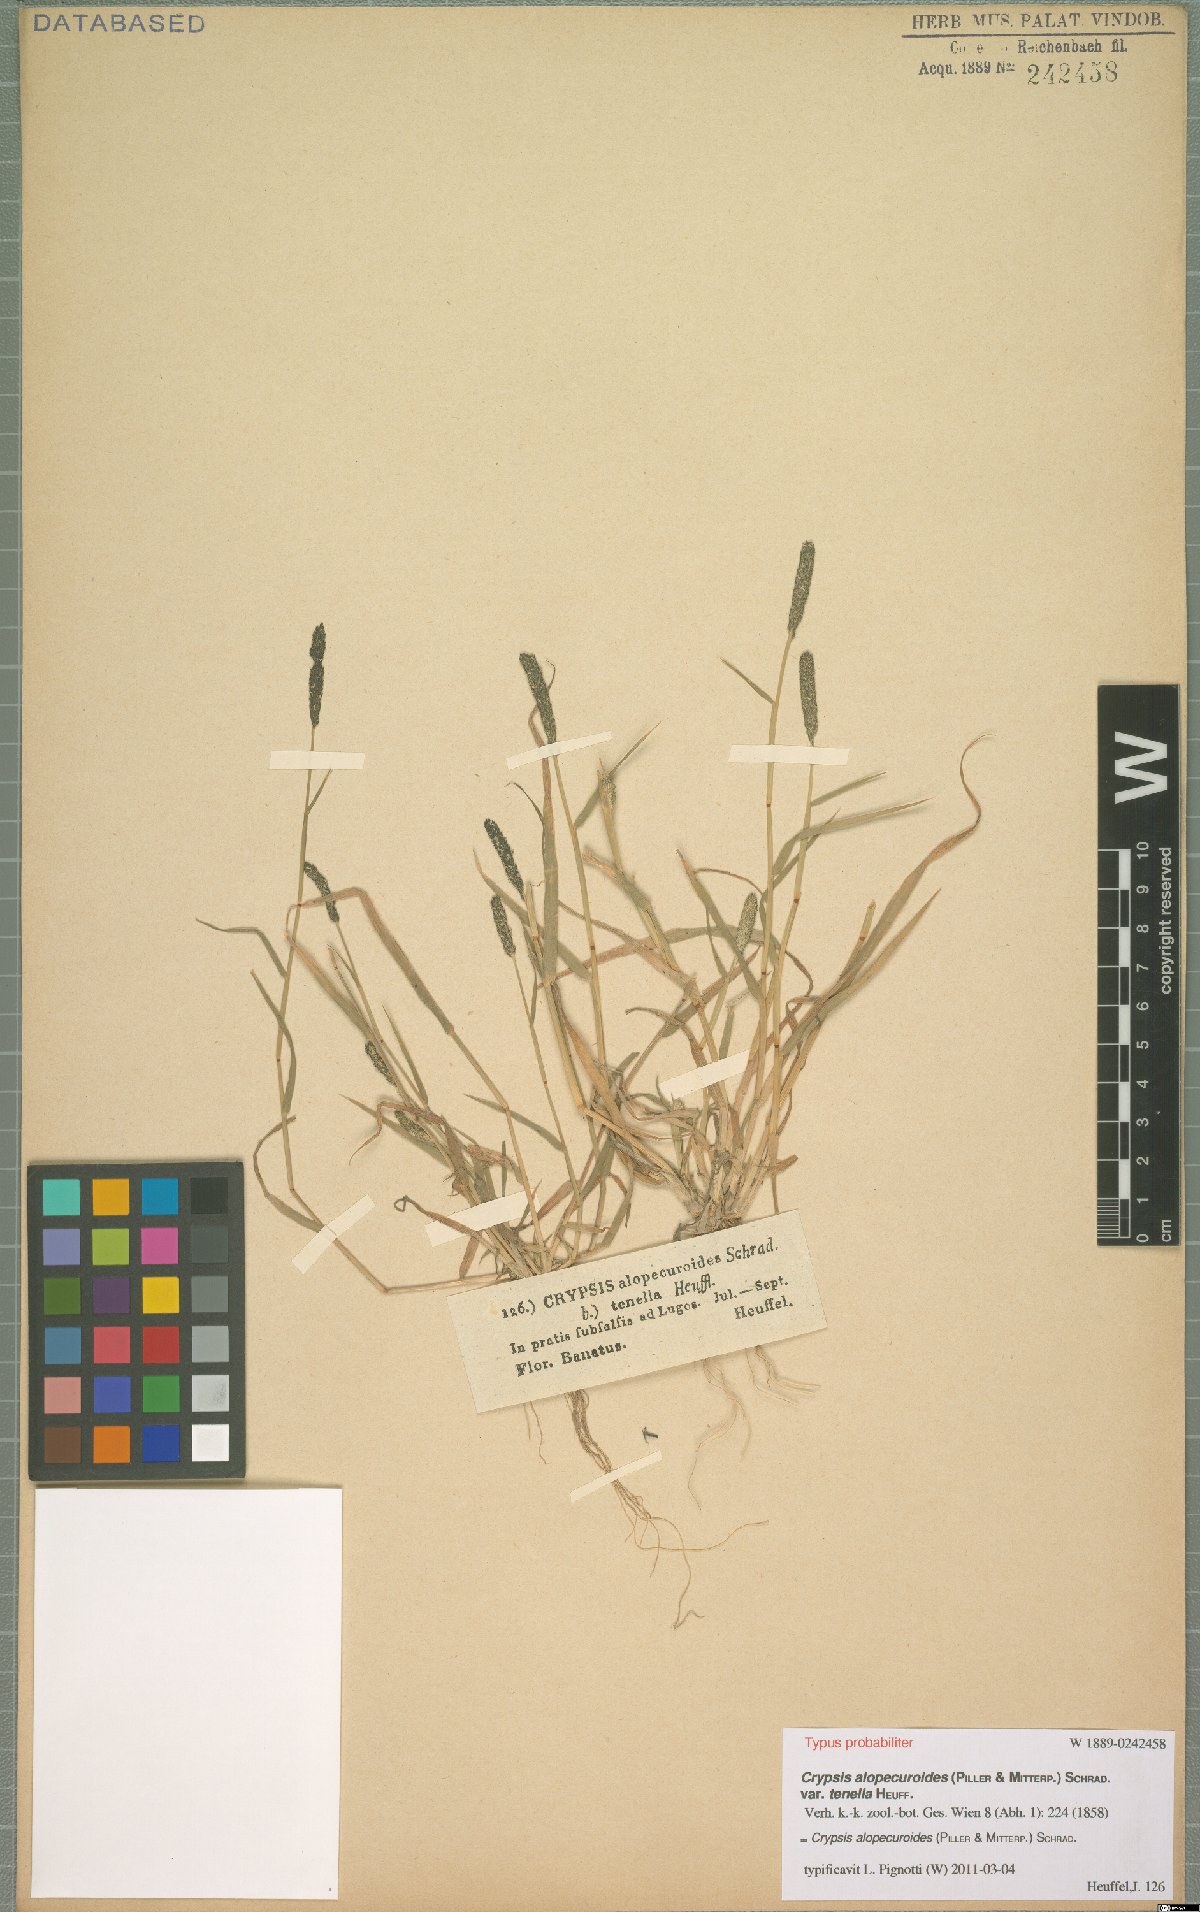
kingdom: Plantae
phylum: Tracheophyta
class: Liliopsida
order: Poales
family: Poaceae
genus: Sporobolus
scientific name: Sporobolus alopecuroides
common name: Foxtail pricklegrass
